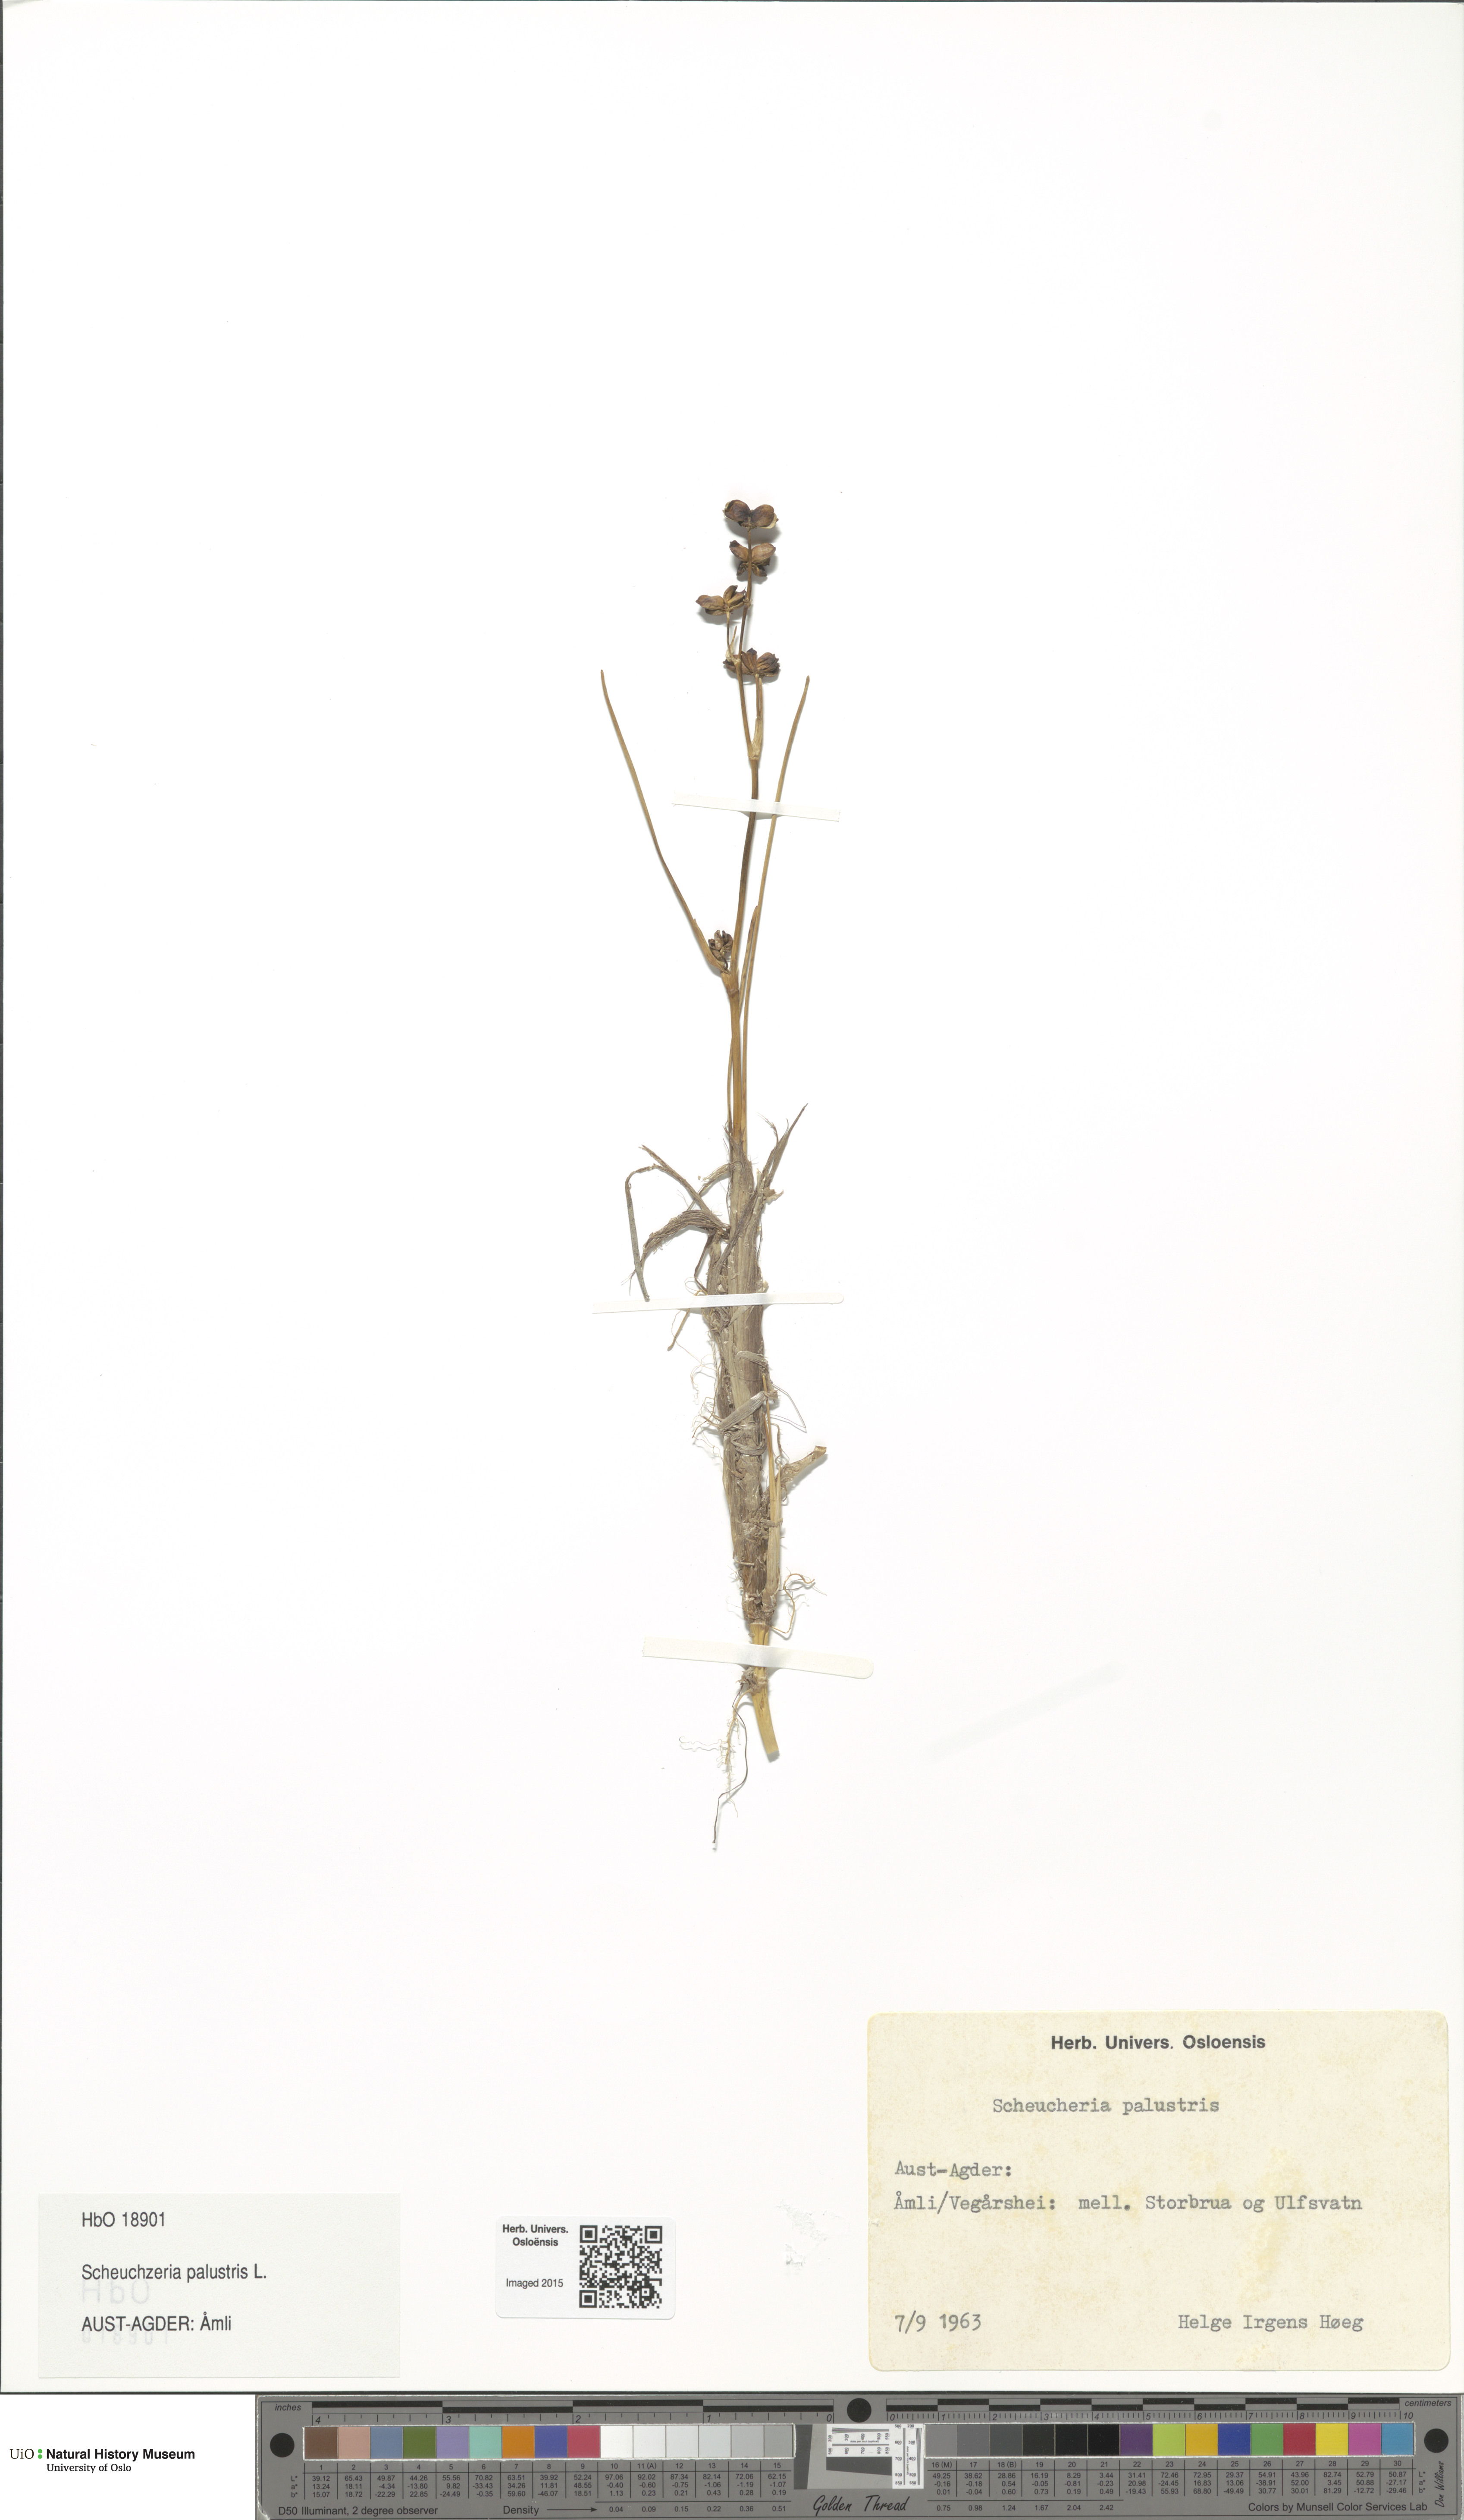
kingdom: Plantae
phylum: Tracheophyta
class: Liliopsida
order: Alismatales
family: Scheuchzeriaceae
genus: Scheuchzeria
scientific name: Scheuchzeria palustris
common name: Rannoch-rush
